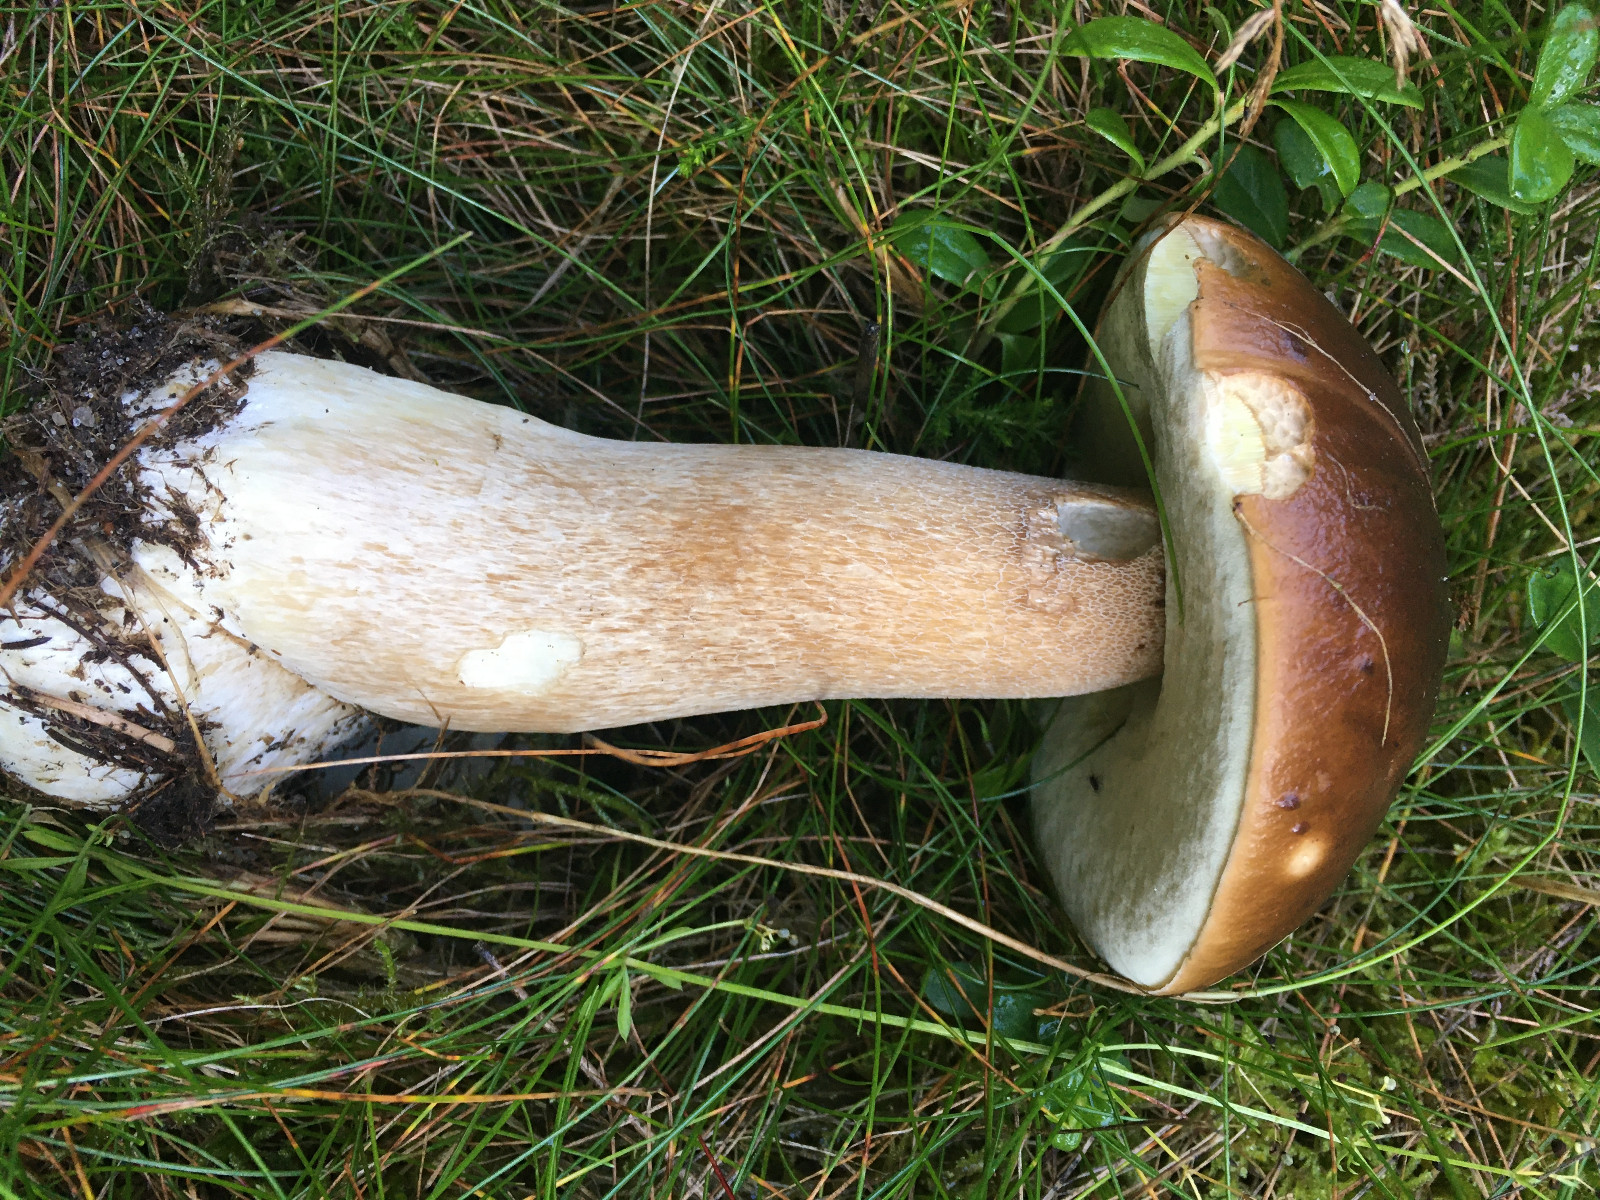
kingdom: Fungi
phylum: Basidiomycota
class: Agaricomycetes
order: Boletales
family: Boletaceae
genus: Boletus
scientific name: Boletus edulis
